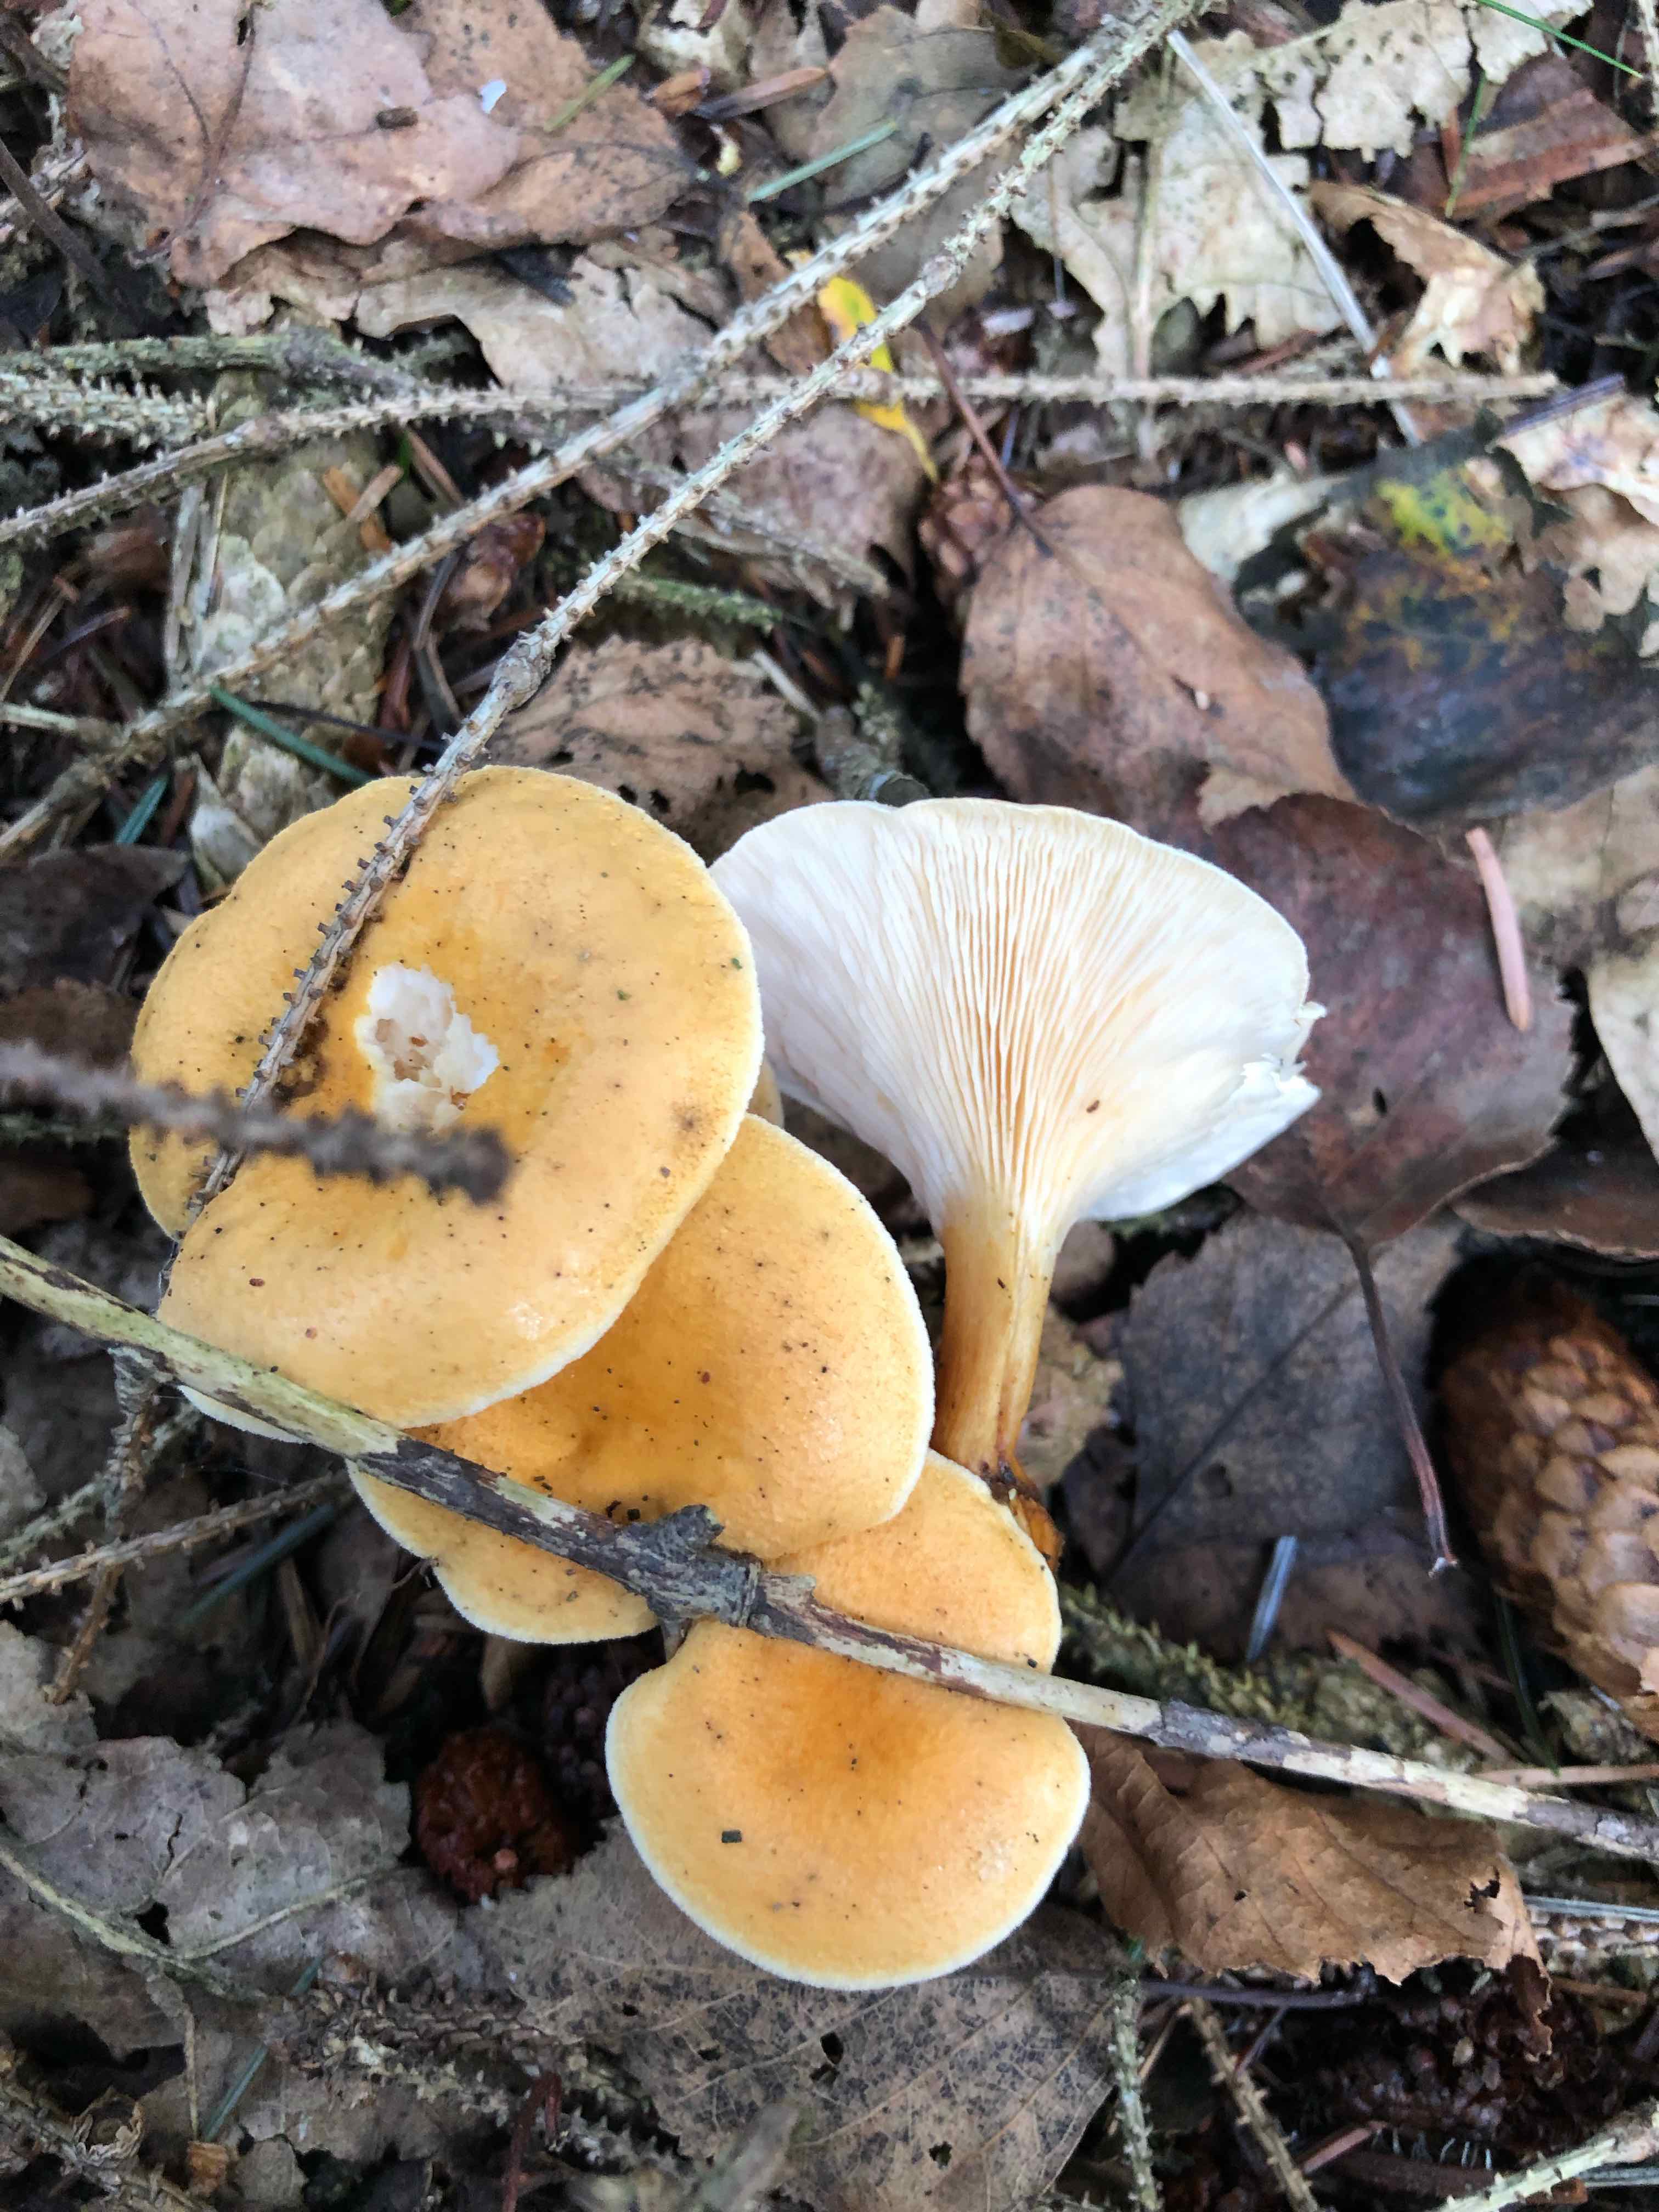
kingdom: Fungi
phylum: Basidiomycota
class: Agaricomycetes
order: Boletales
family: Hygrophoropsidaceae
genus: Hygrophoropsis
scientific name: Hygrophoropsis pallida
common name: bleg orangekantarel
